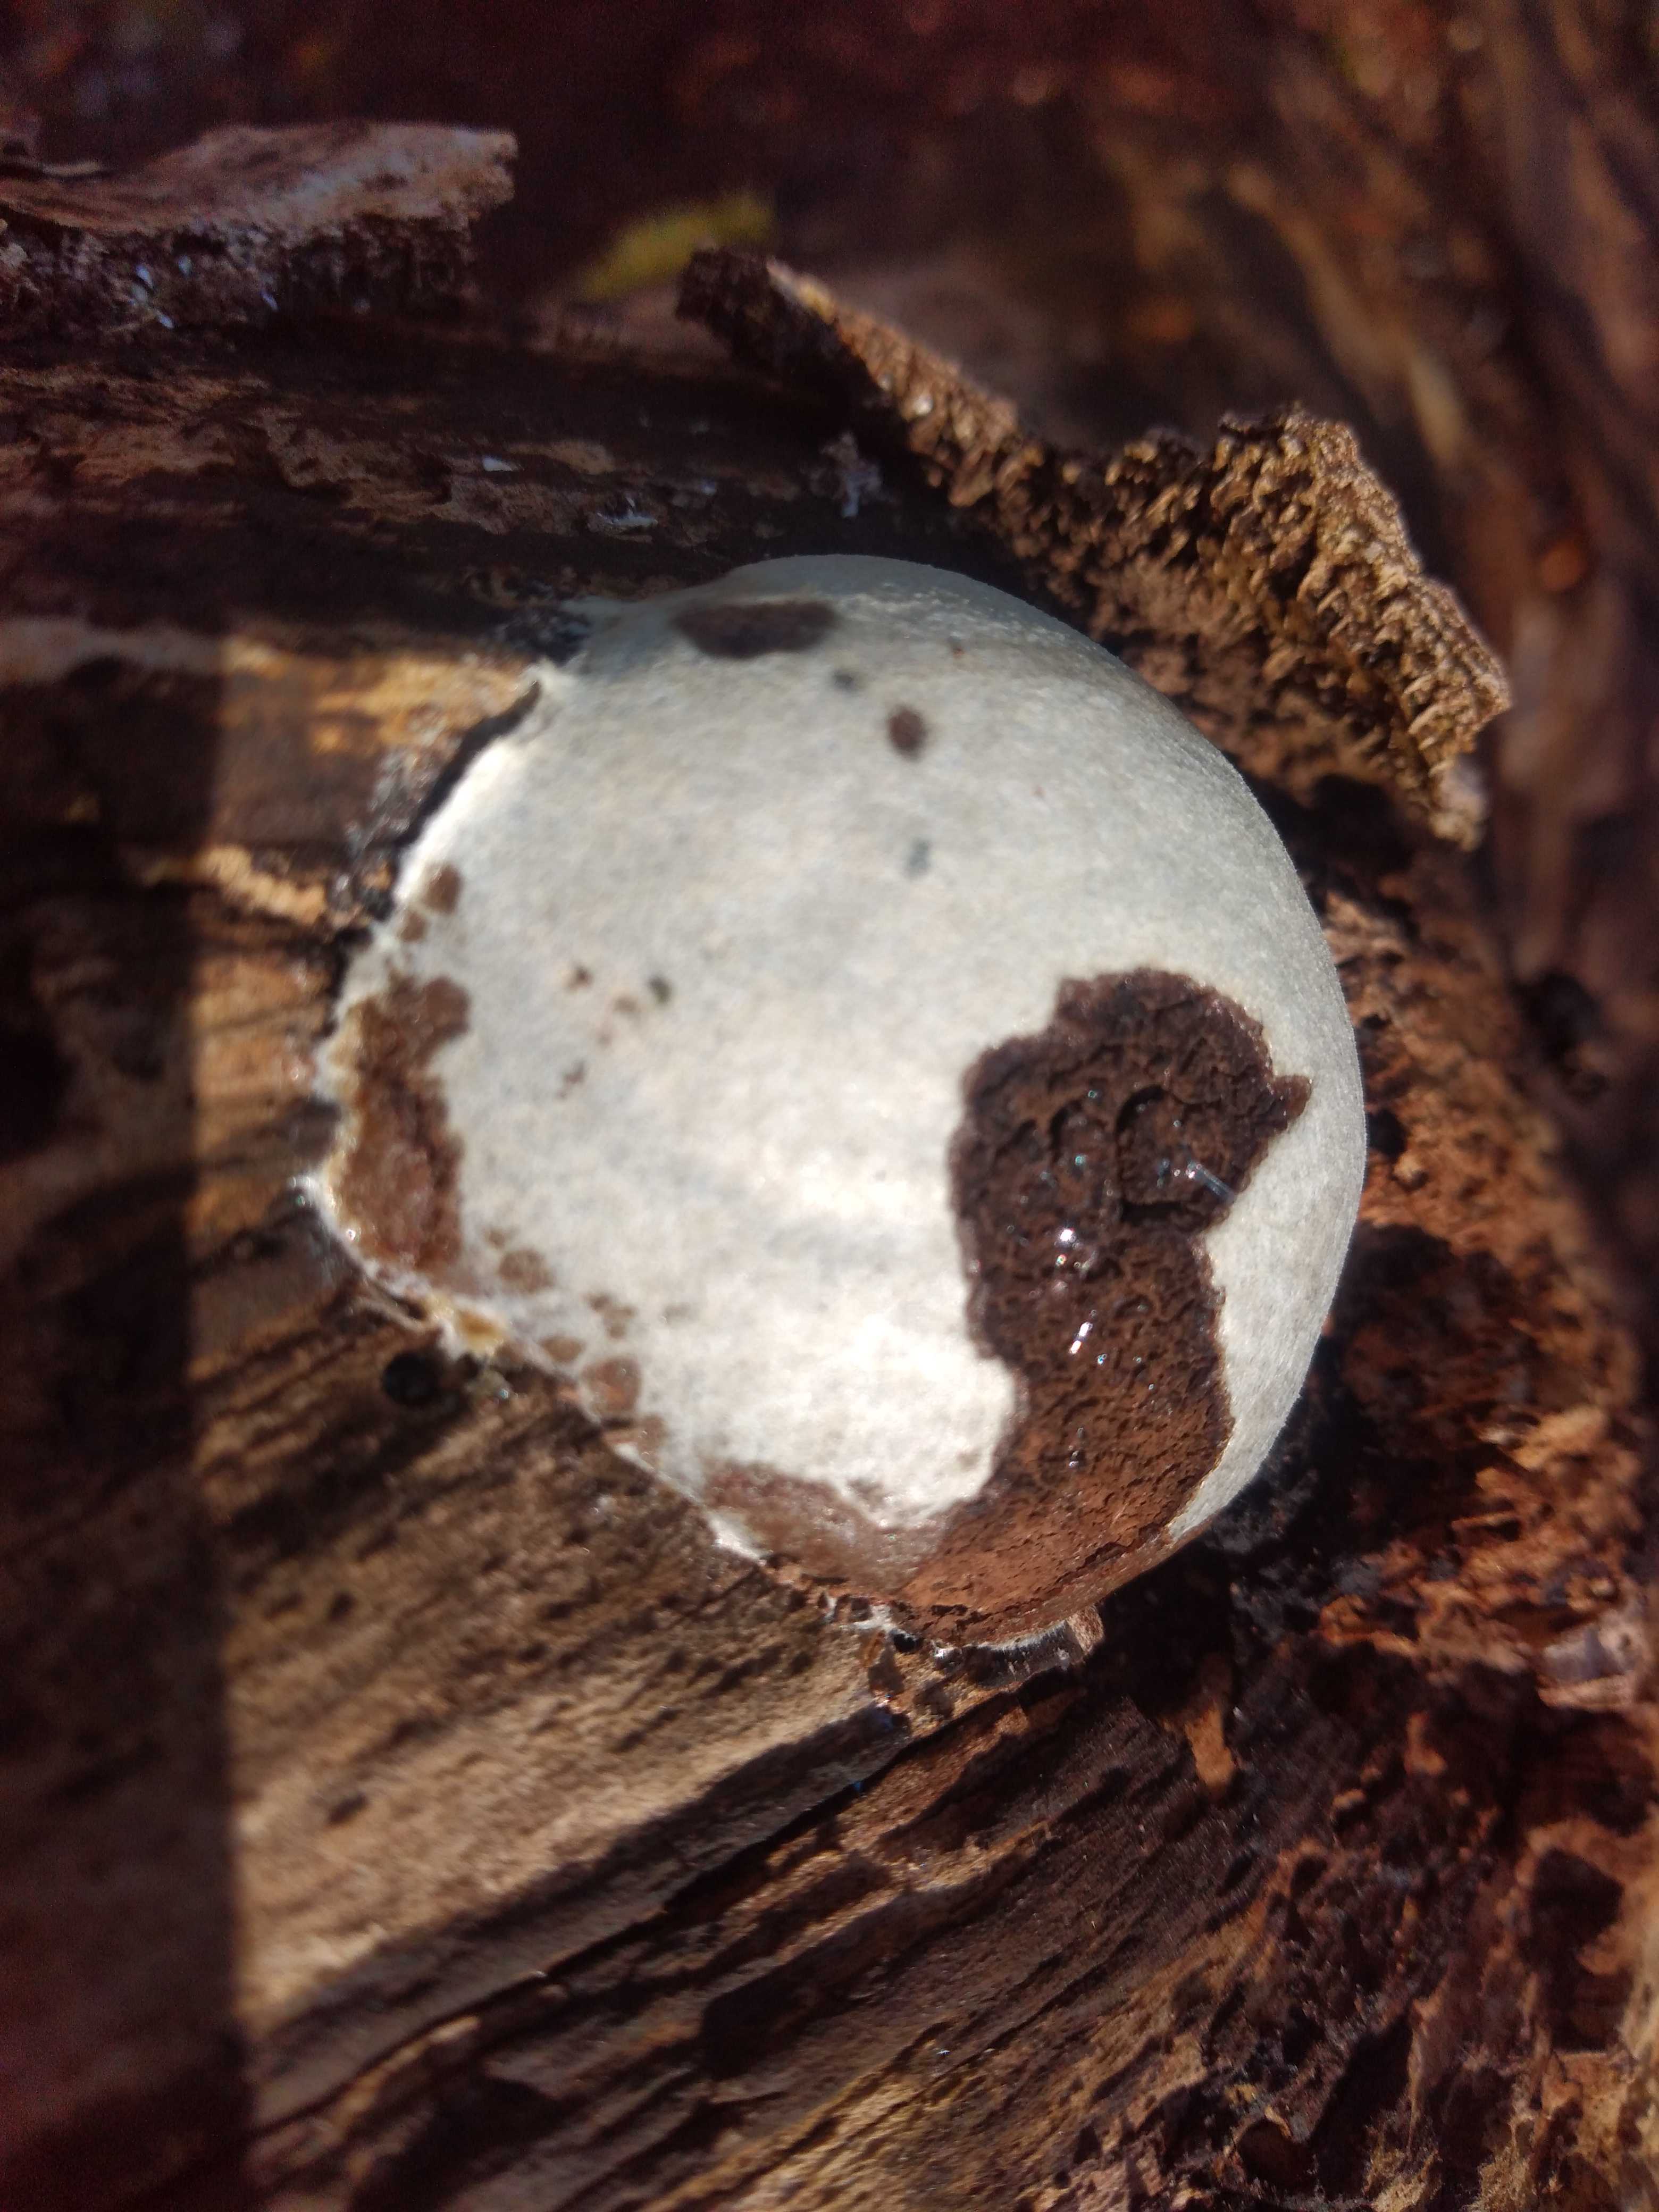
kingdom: Protozoa
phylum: Mycetozoa
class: Myxomycetes
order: Cribrariales
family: Tubiferaceae
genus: Reticularia
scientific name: Reticularia lycoperdon
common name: skinnende støvpude
